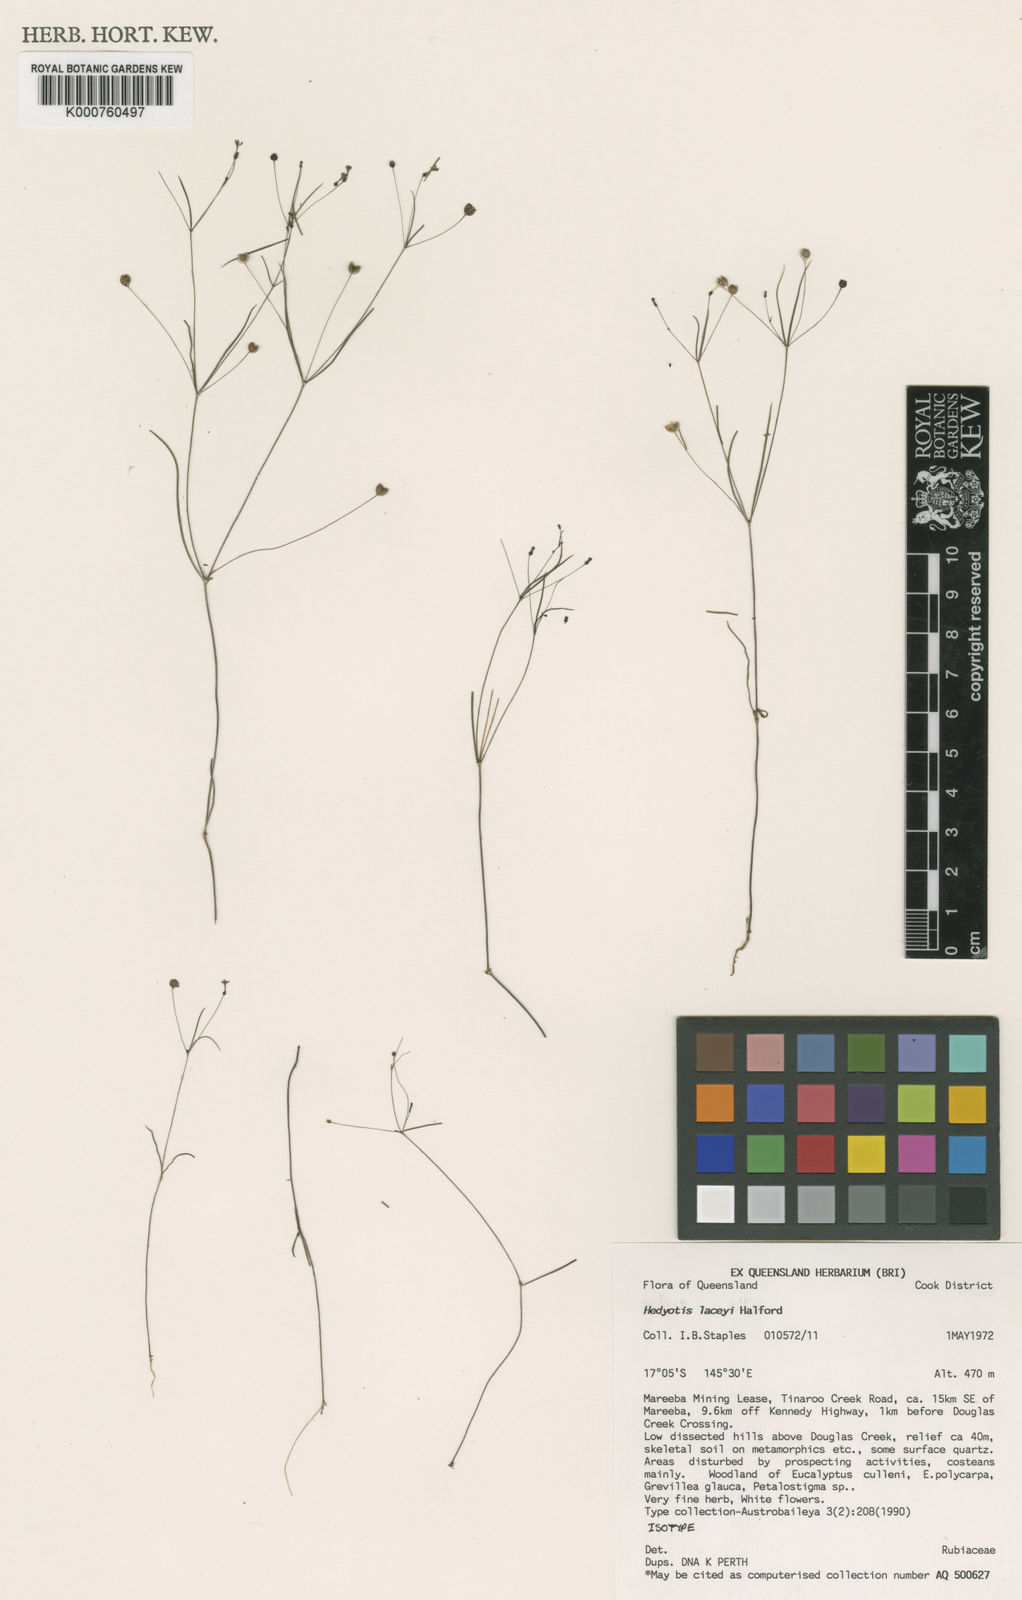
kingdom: Plantae
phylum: Tracheophyta
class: Magnoliopsida
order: Gentianales
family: Rubiaceae
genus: Scleromitrion
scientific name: Scleromitrion laceyi
